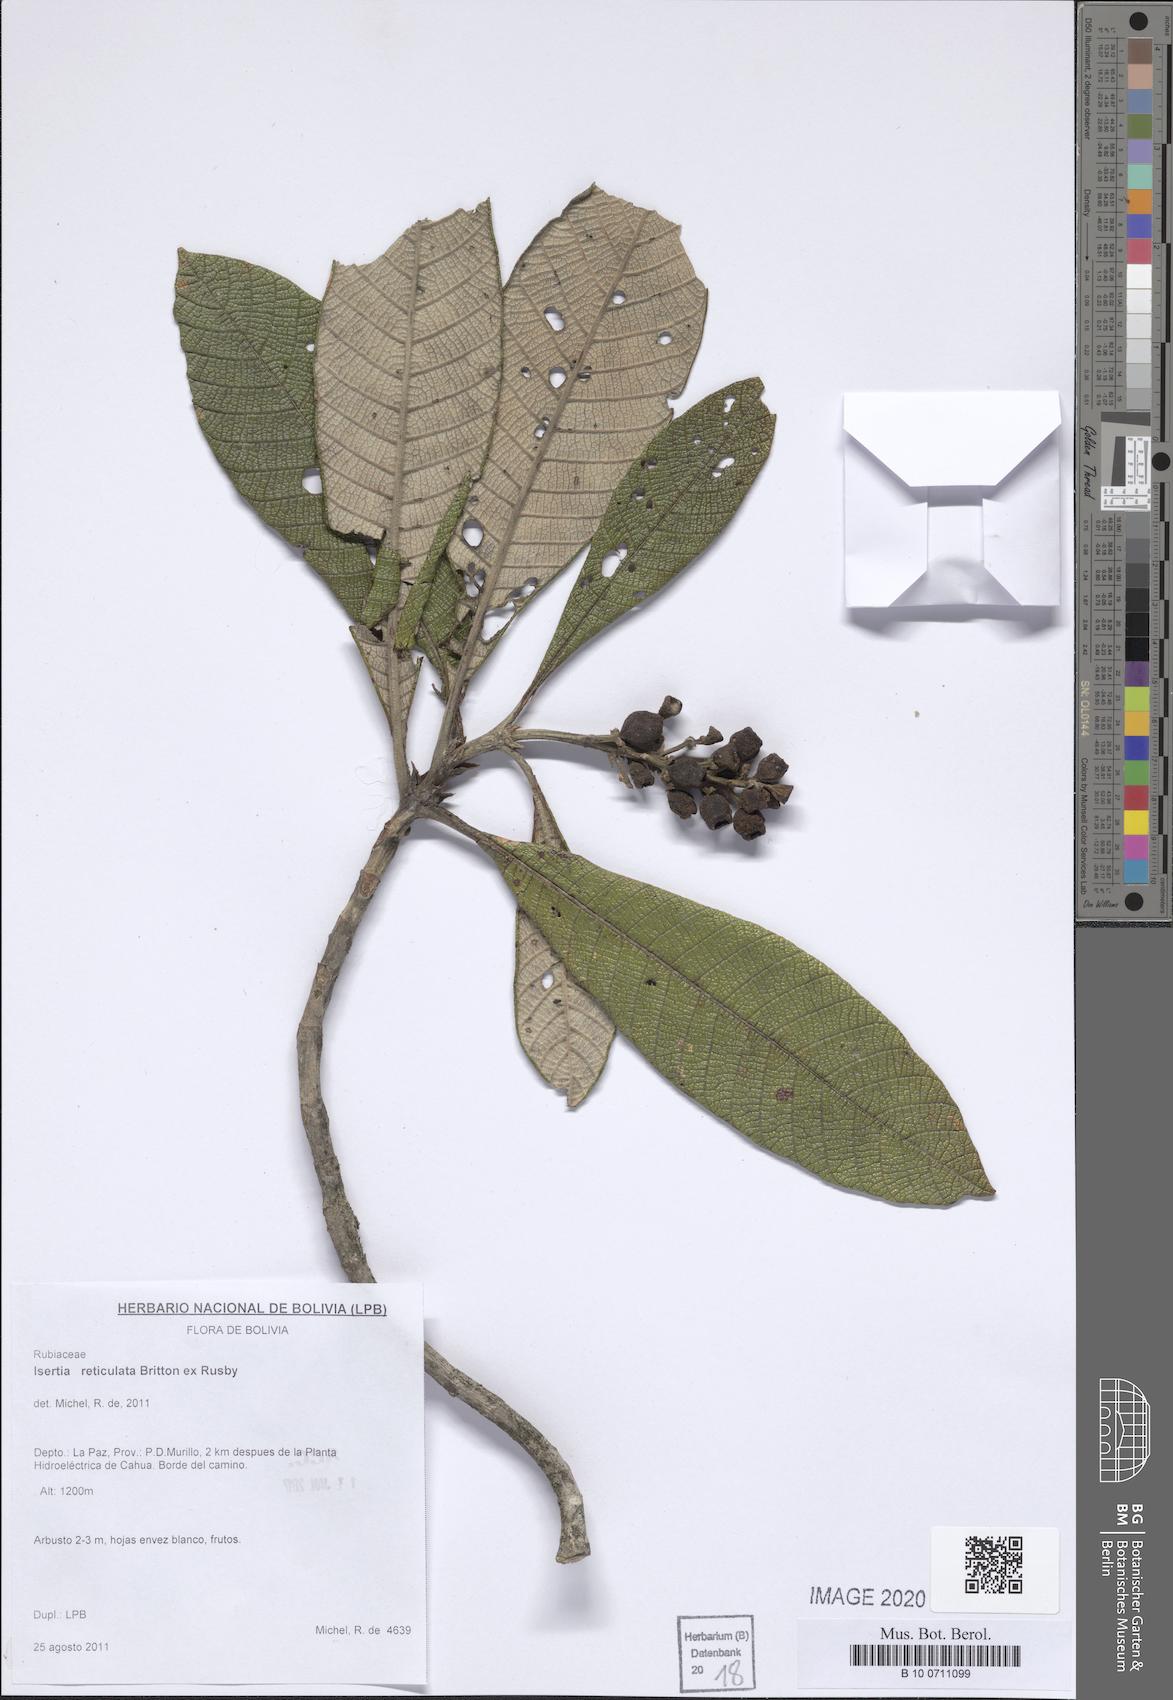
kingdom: Plantae
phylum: Tracheophyta
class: Magnoliopsida
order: Gentianales
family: Rubiaceae
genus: Isertia
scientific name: Isertia reticulata
